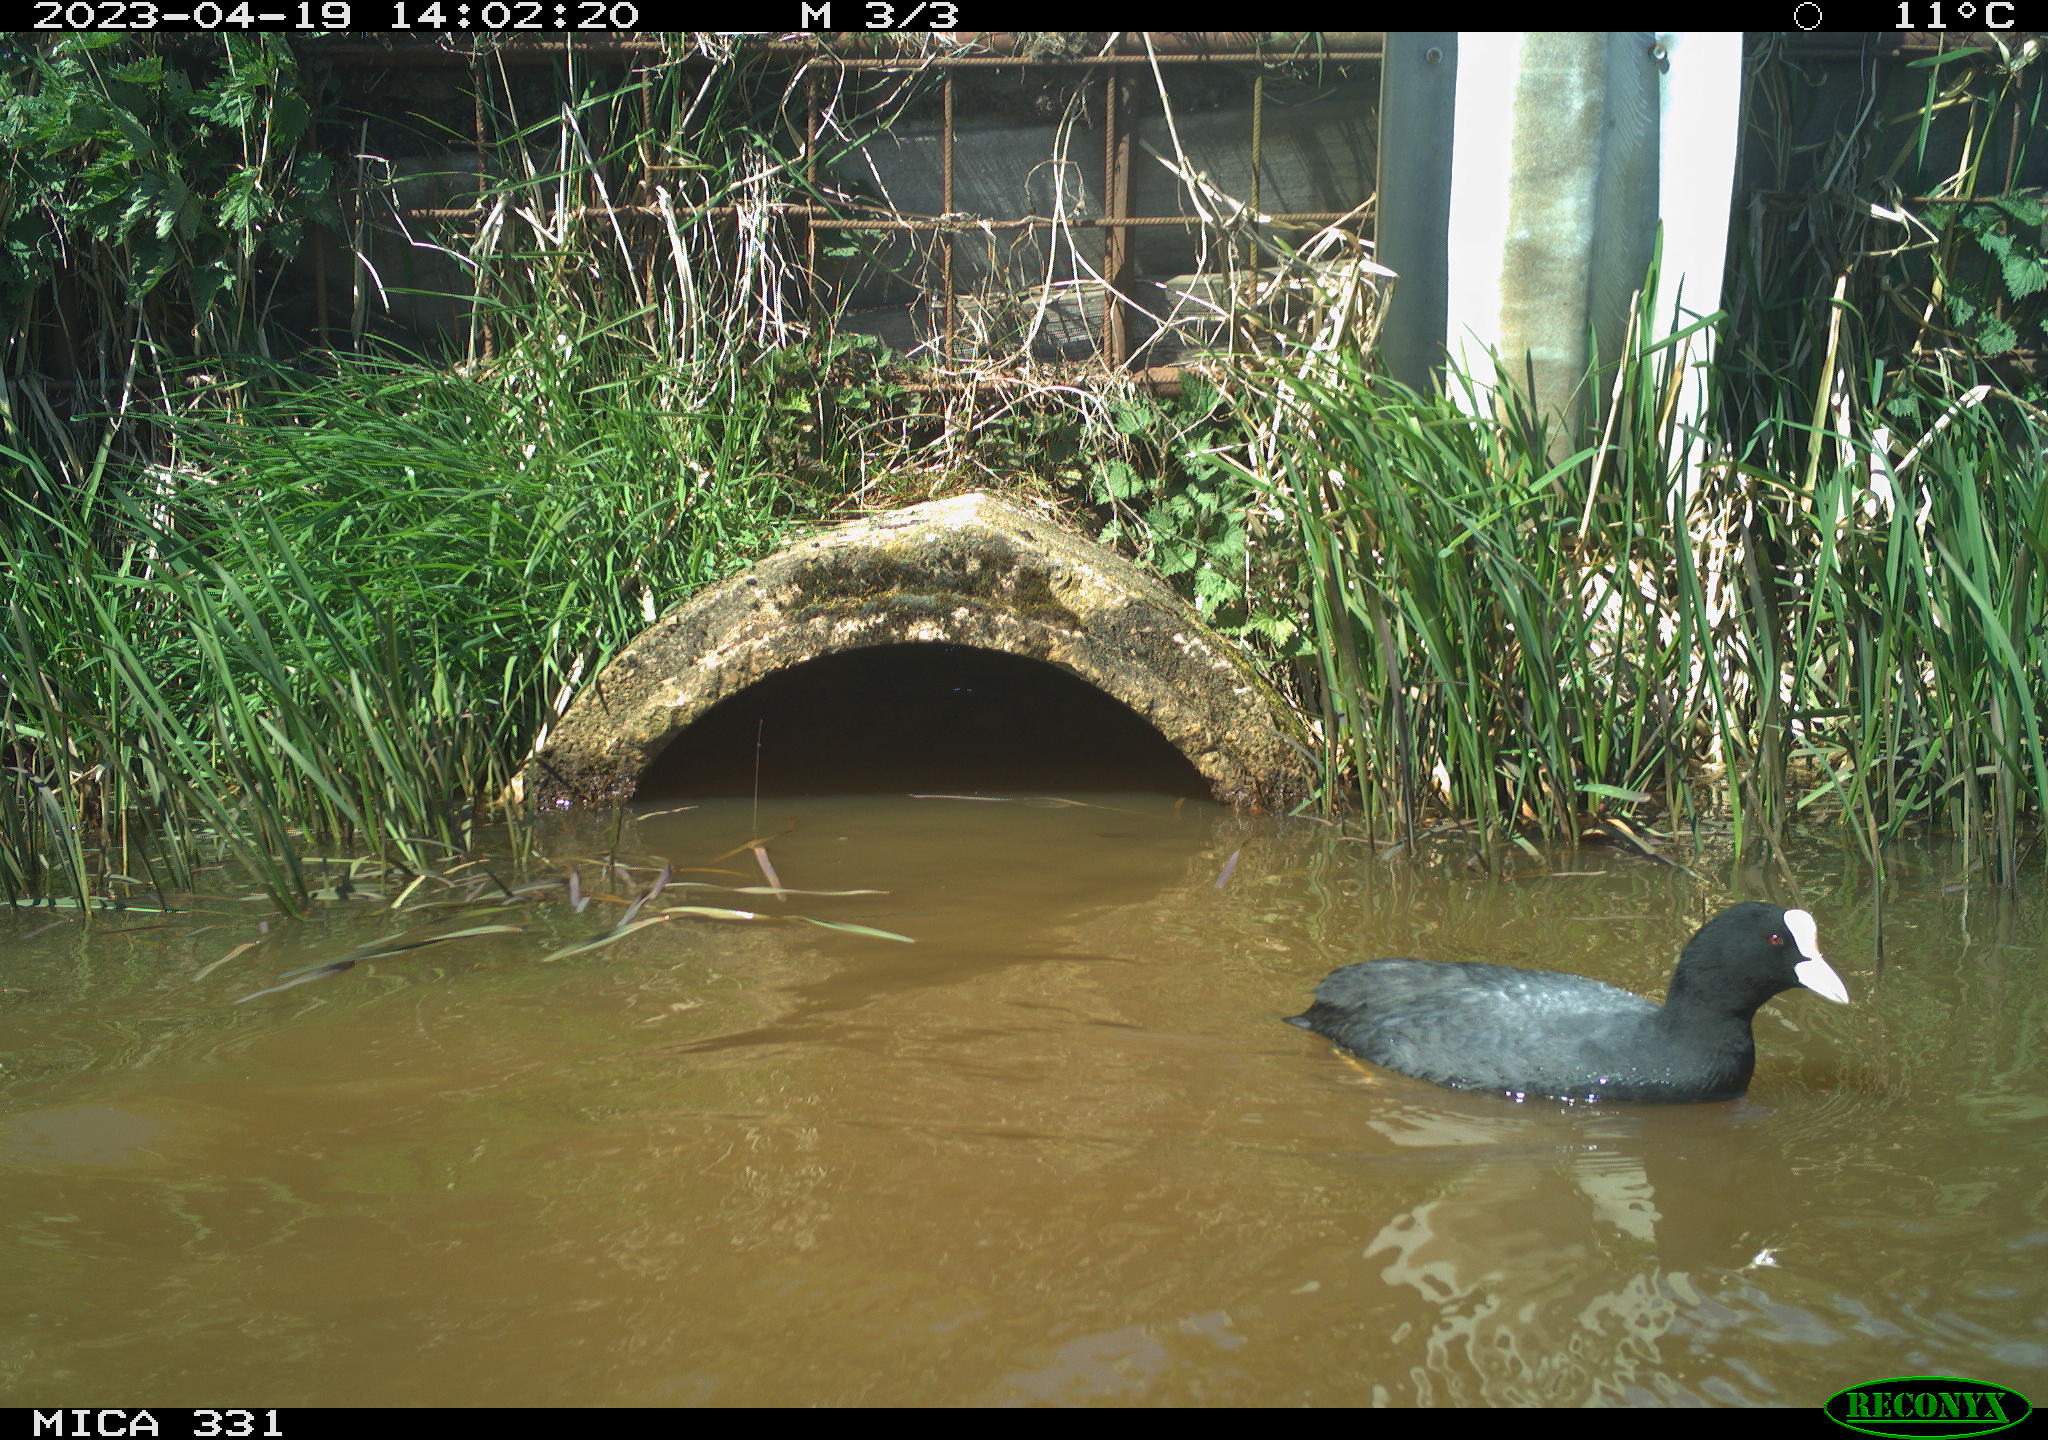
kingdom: Animalia
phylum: Chordata
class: Aves
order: Gruiformes
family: Rallidae
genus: Fulica
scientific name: Fulica atra
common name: Eurasian coot
